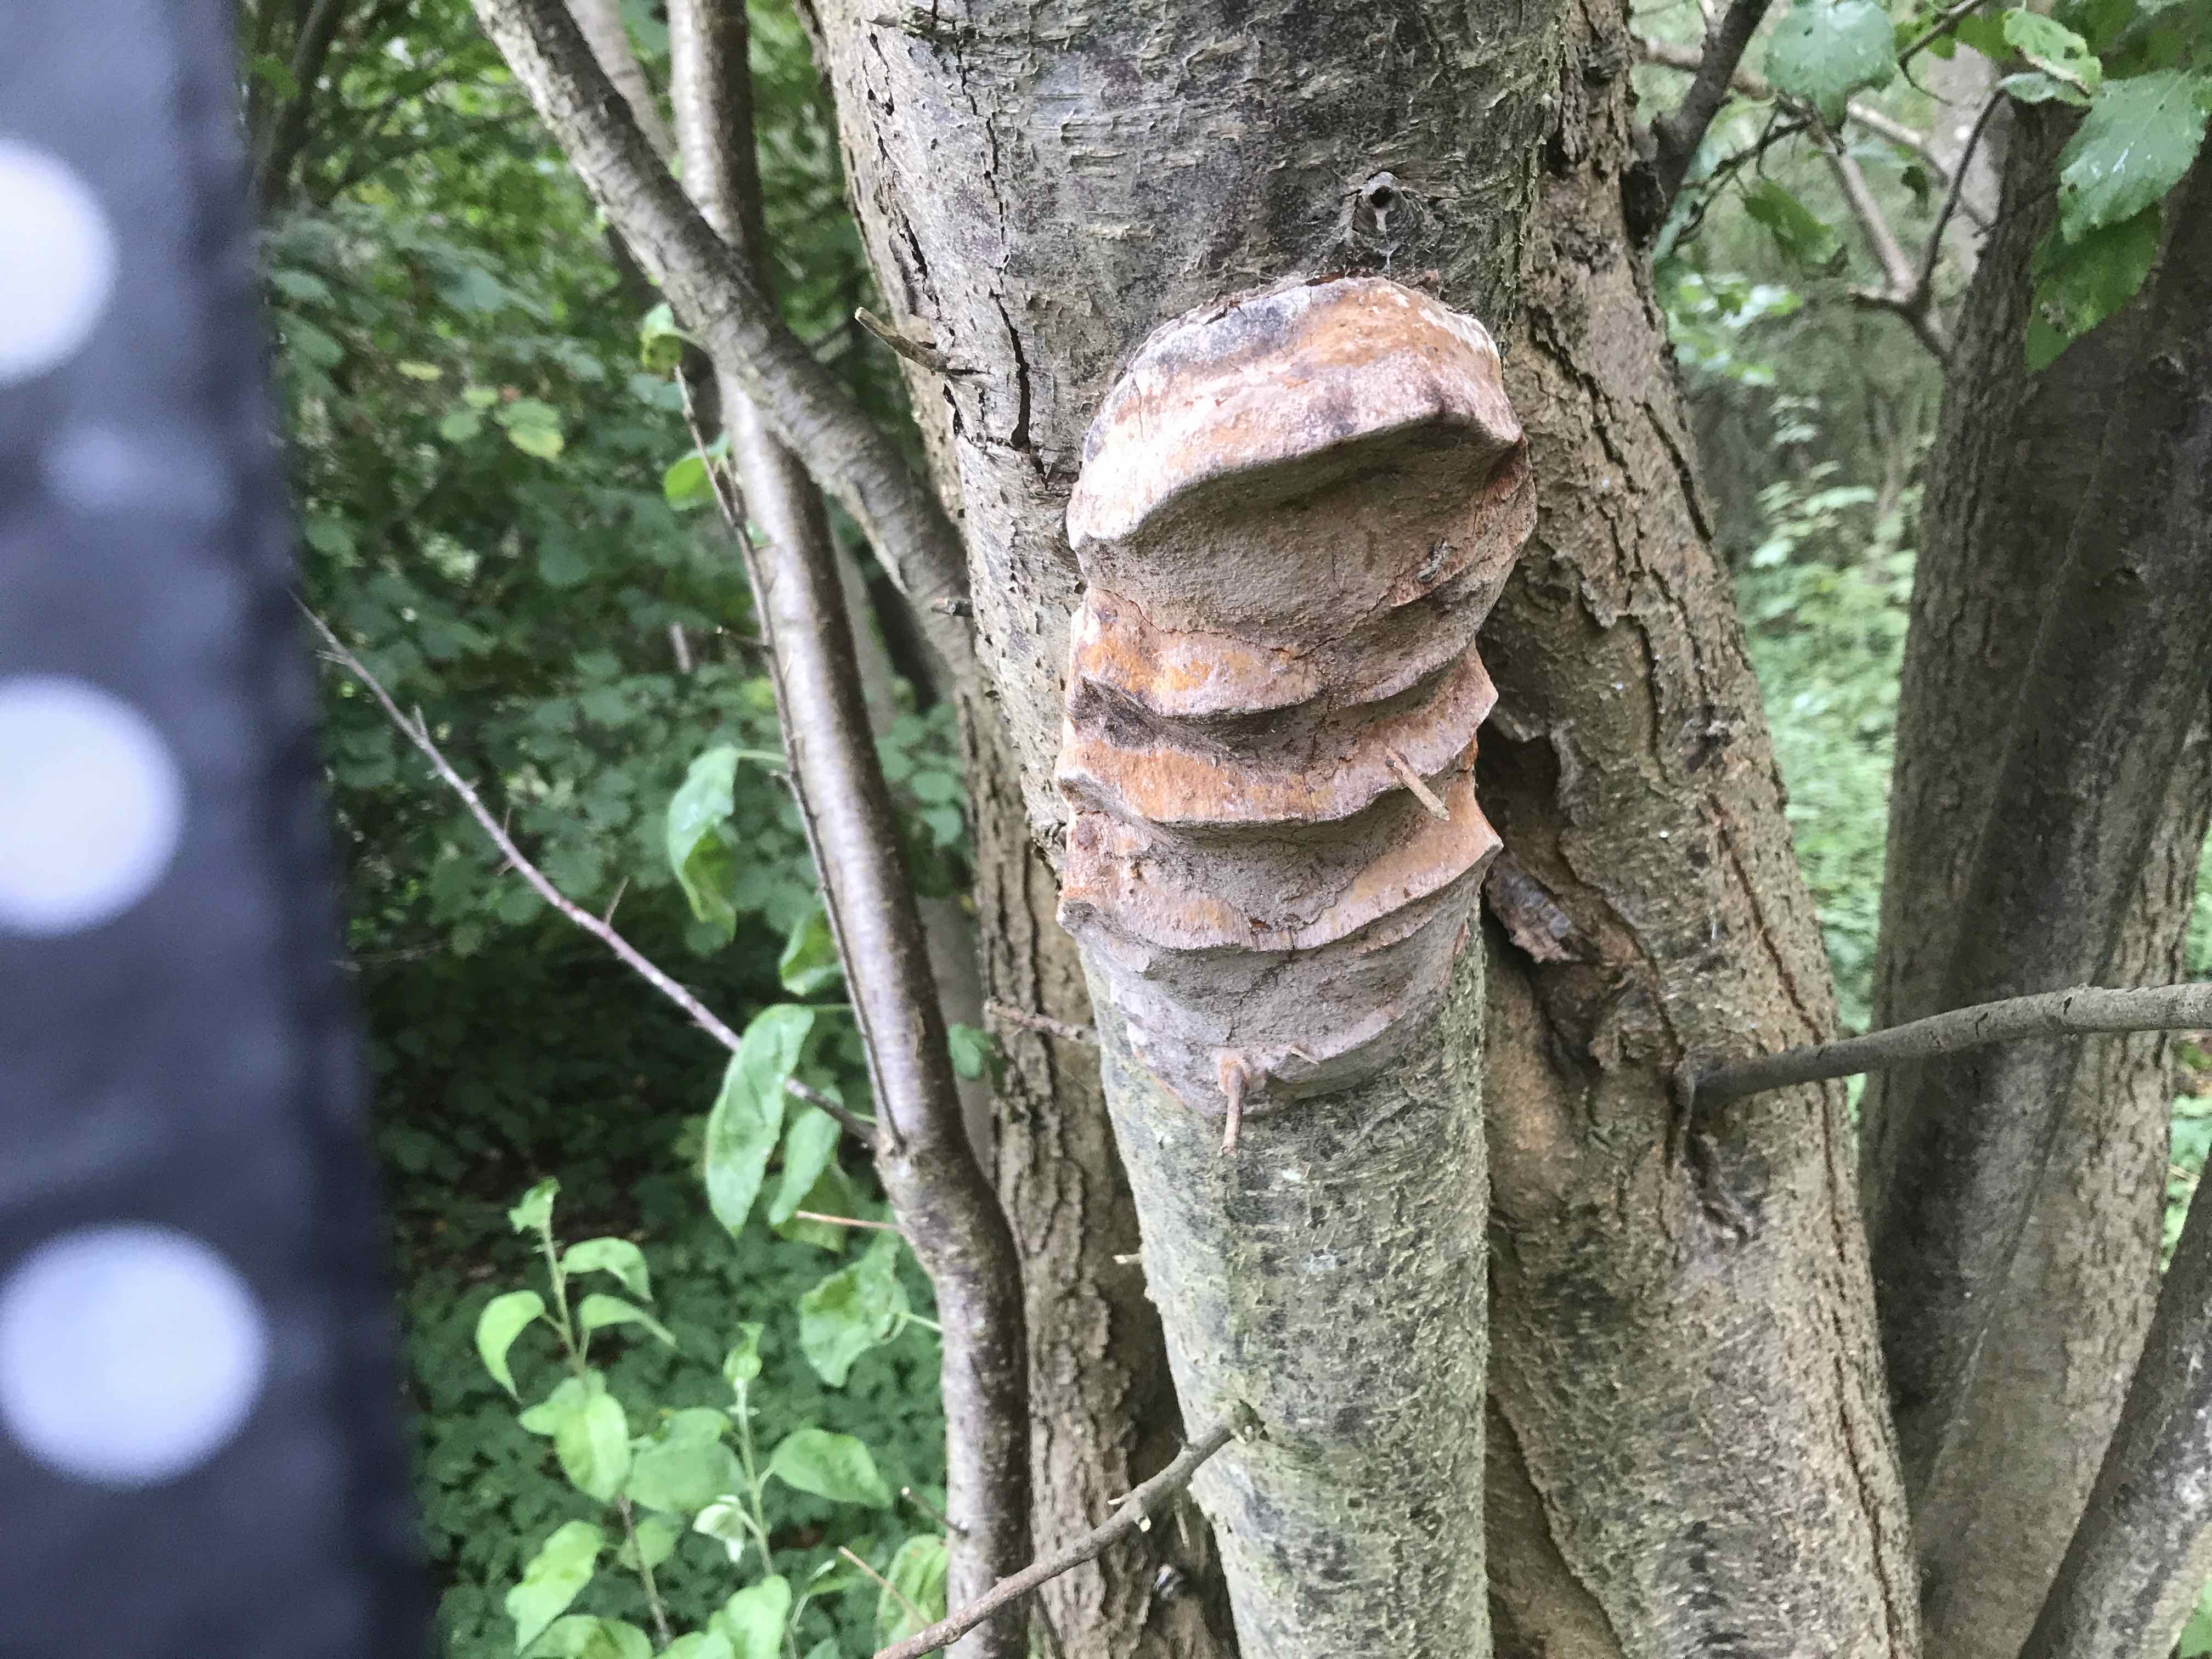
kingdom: Fungi
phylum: Basidiomycota
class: Agaricomycetes
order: Hymenochaetales
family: Hymenochaetaceae
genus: Phellinus
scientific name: Phellinus pomaceus
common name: blomme-ildporesvamp
